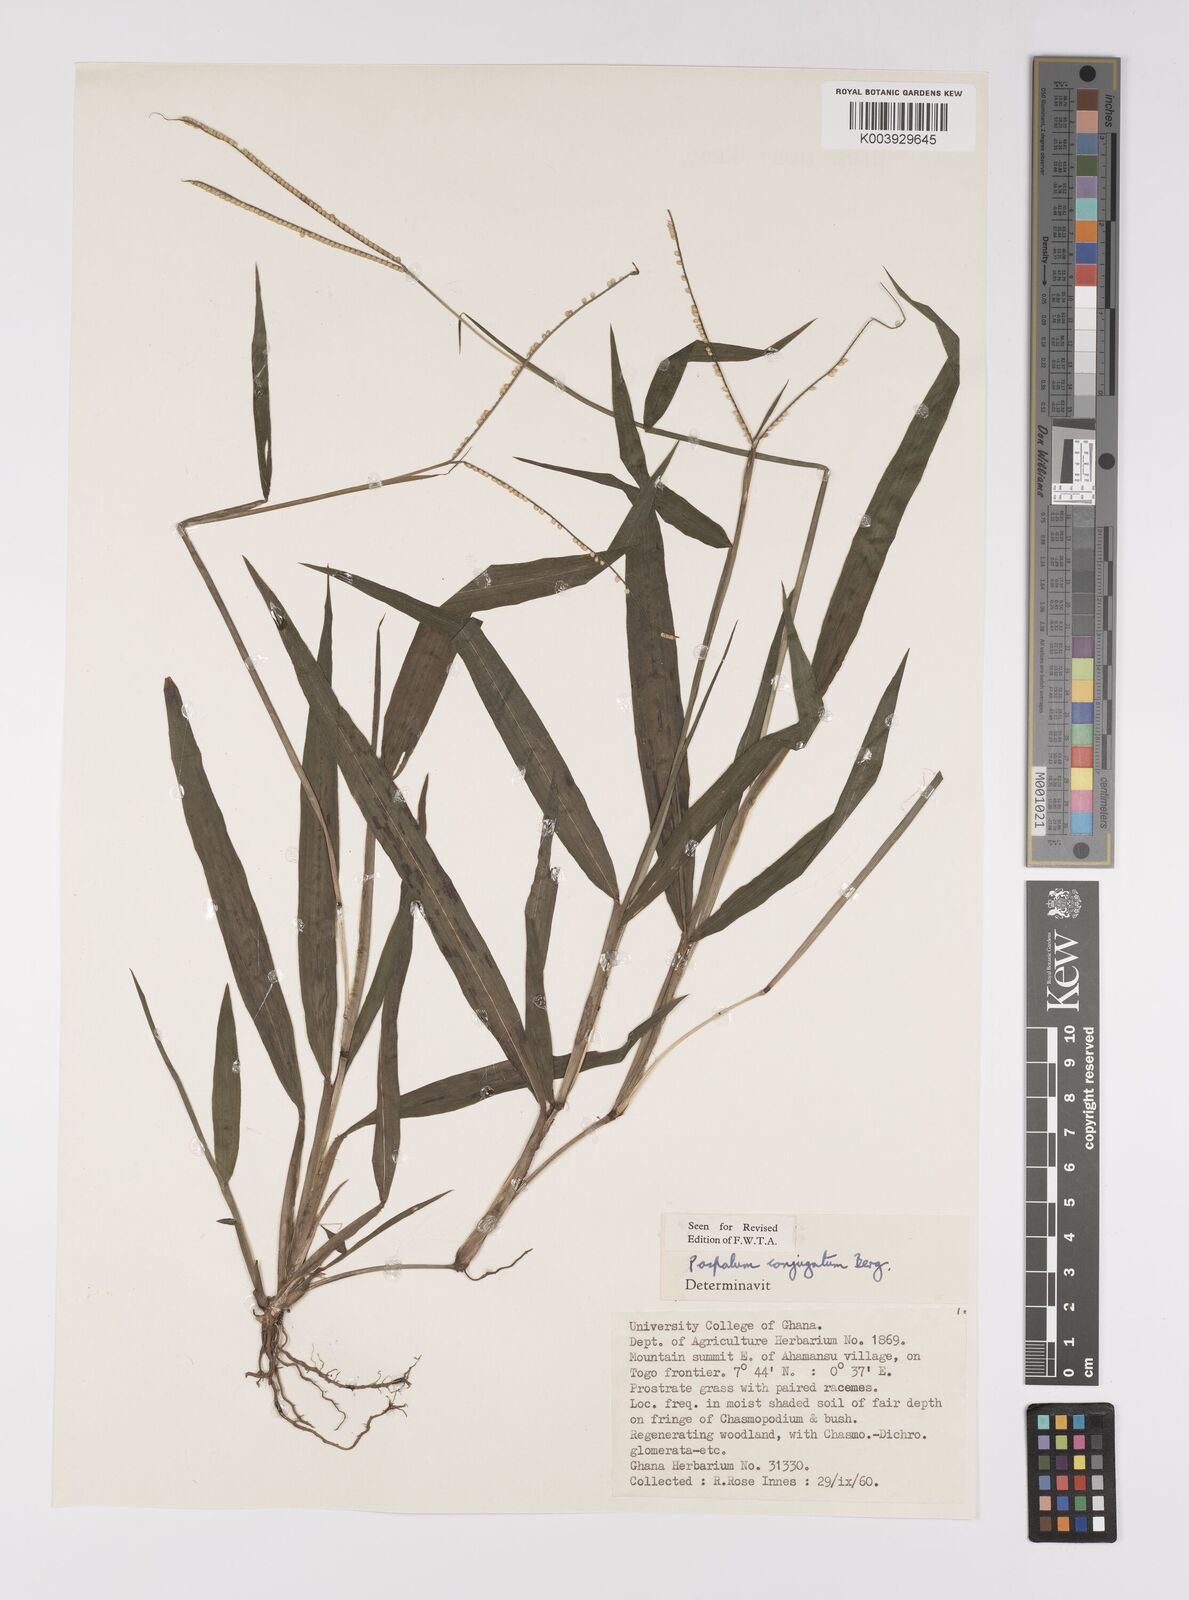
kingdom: Plantae
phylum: Tracheophyta
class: Liliopsida
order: Poales
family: Poaceae
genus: Paspalum
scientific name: Paspalum conjugatum
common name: Hilograss
